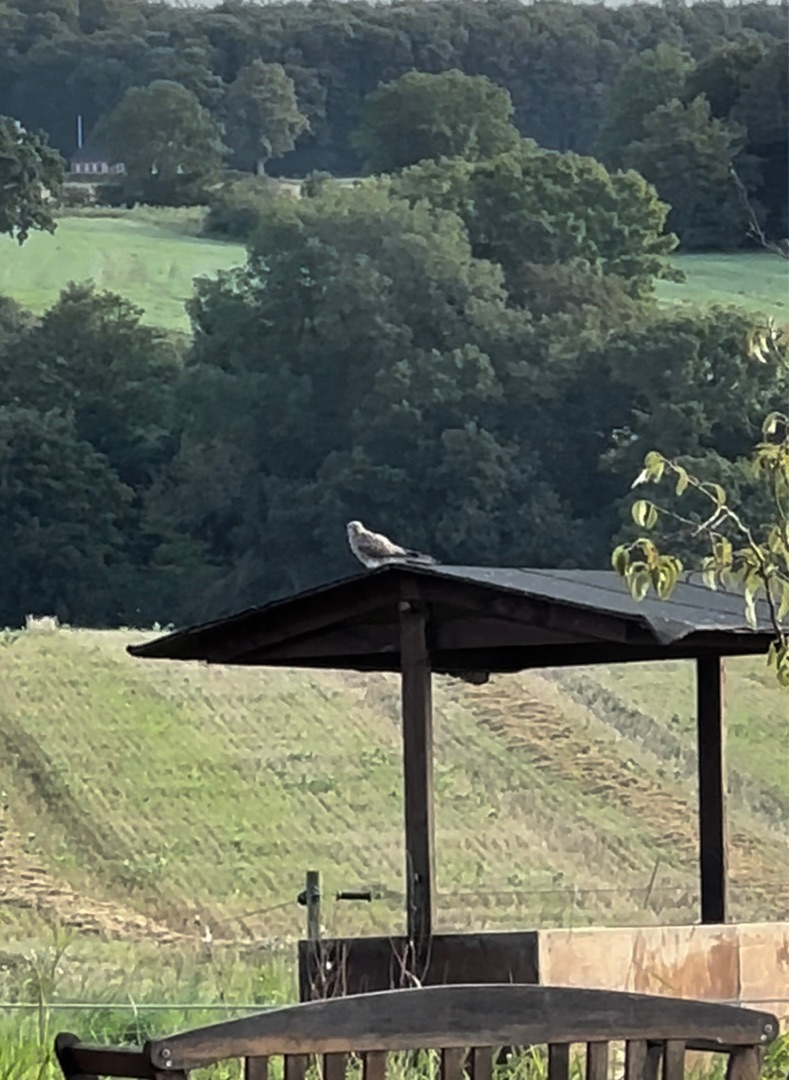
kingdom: Animalia
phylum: Chordata
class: Aves
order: Falconiformes
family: Falconidae
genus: Falco
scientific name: Falco tinnunculus
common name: Tårnfalk
